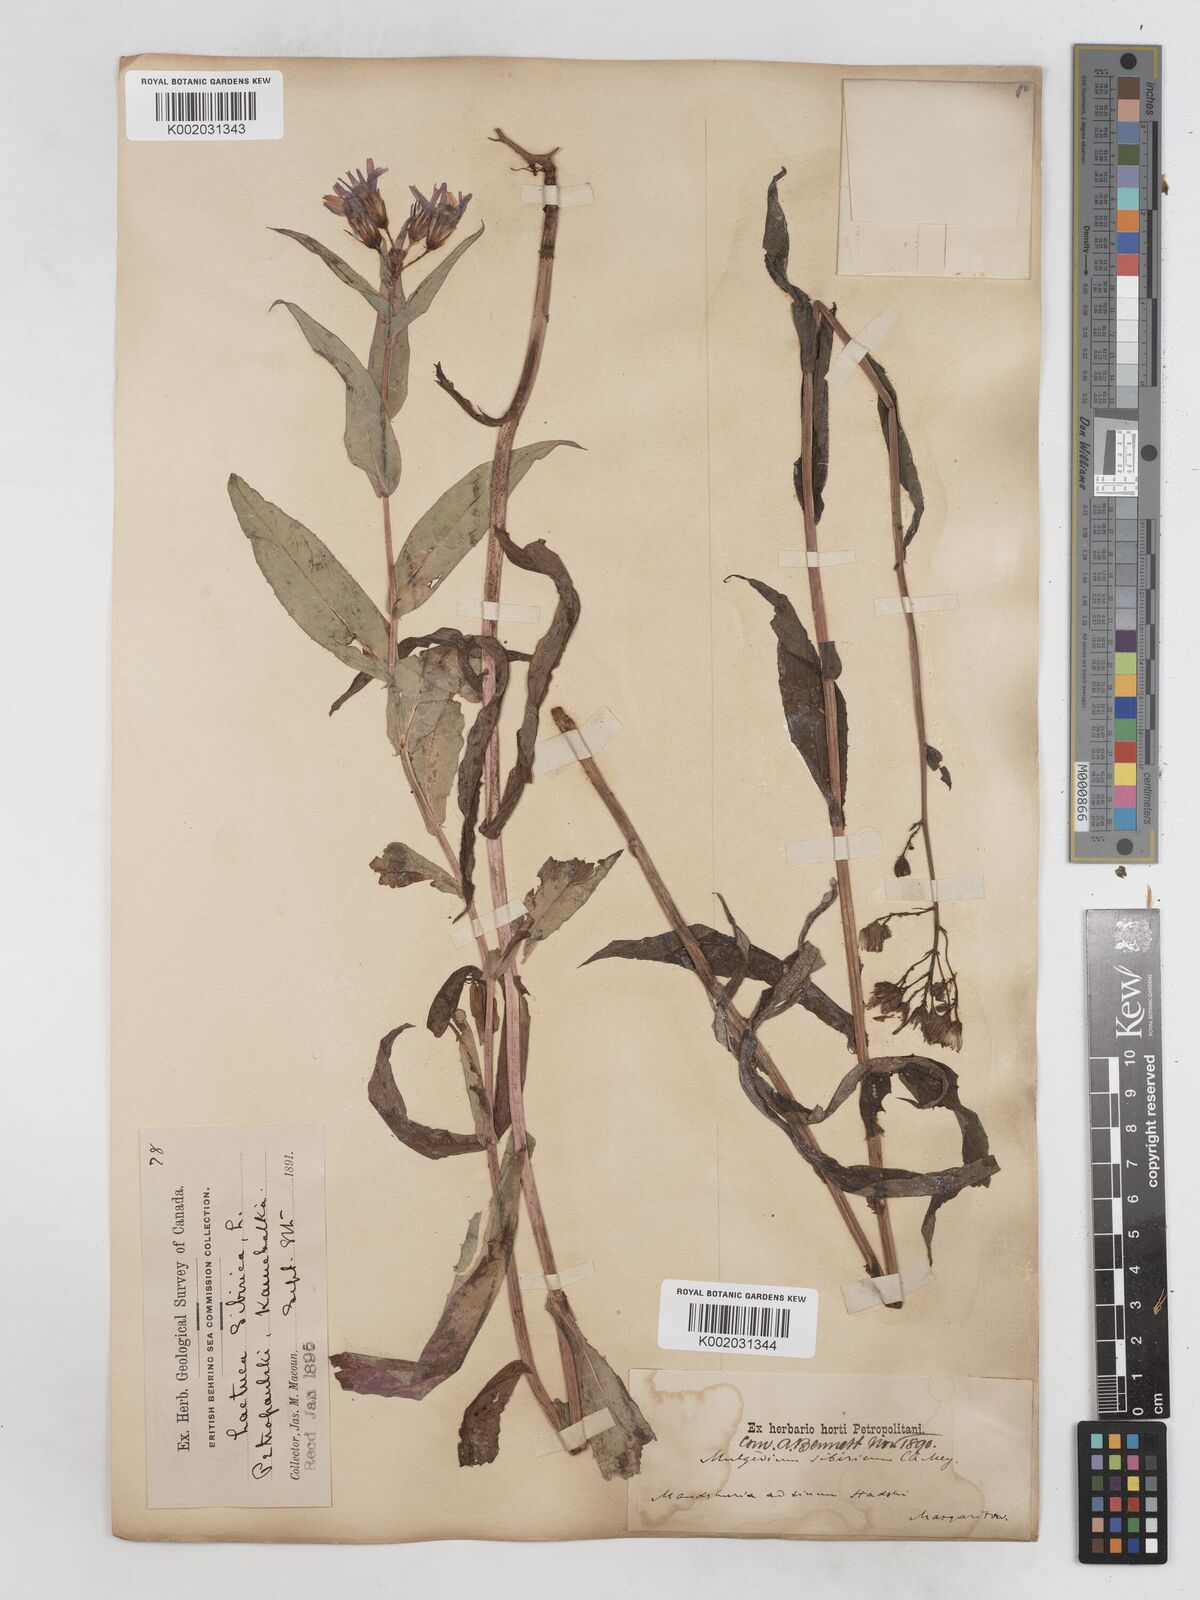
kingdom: Plantae
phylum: Tracheophyta
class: Magnoliopsida
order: Asterales
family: Asteraceae
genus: Lactuca
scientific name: Lactuca sibirica
